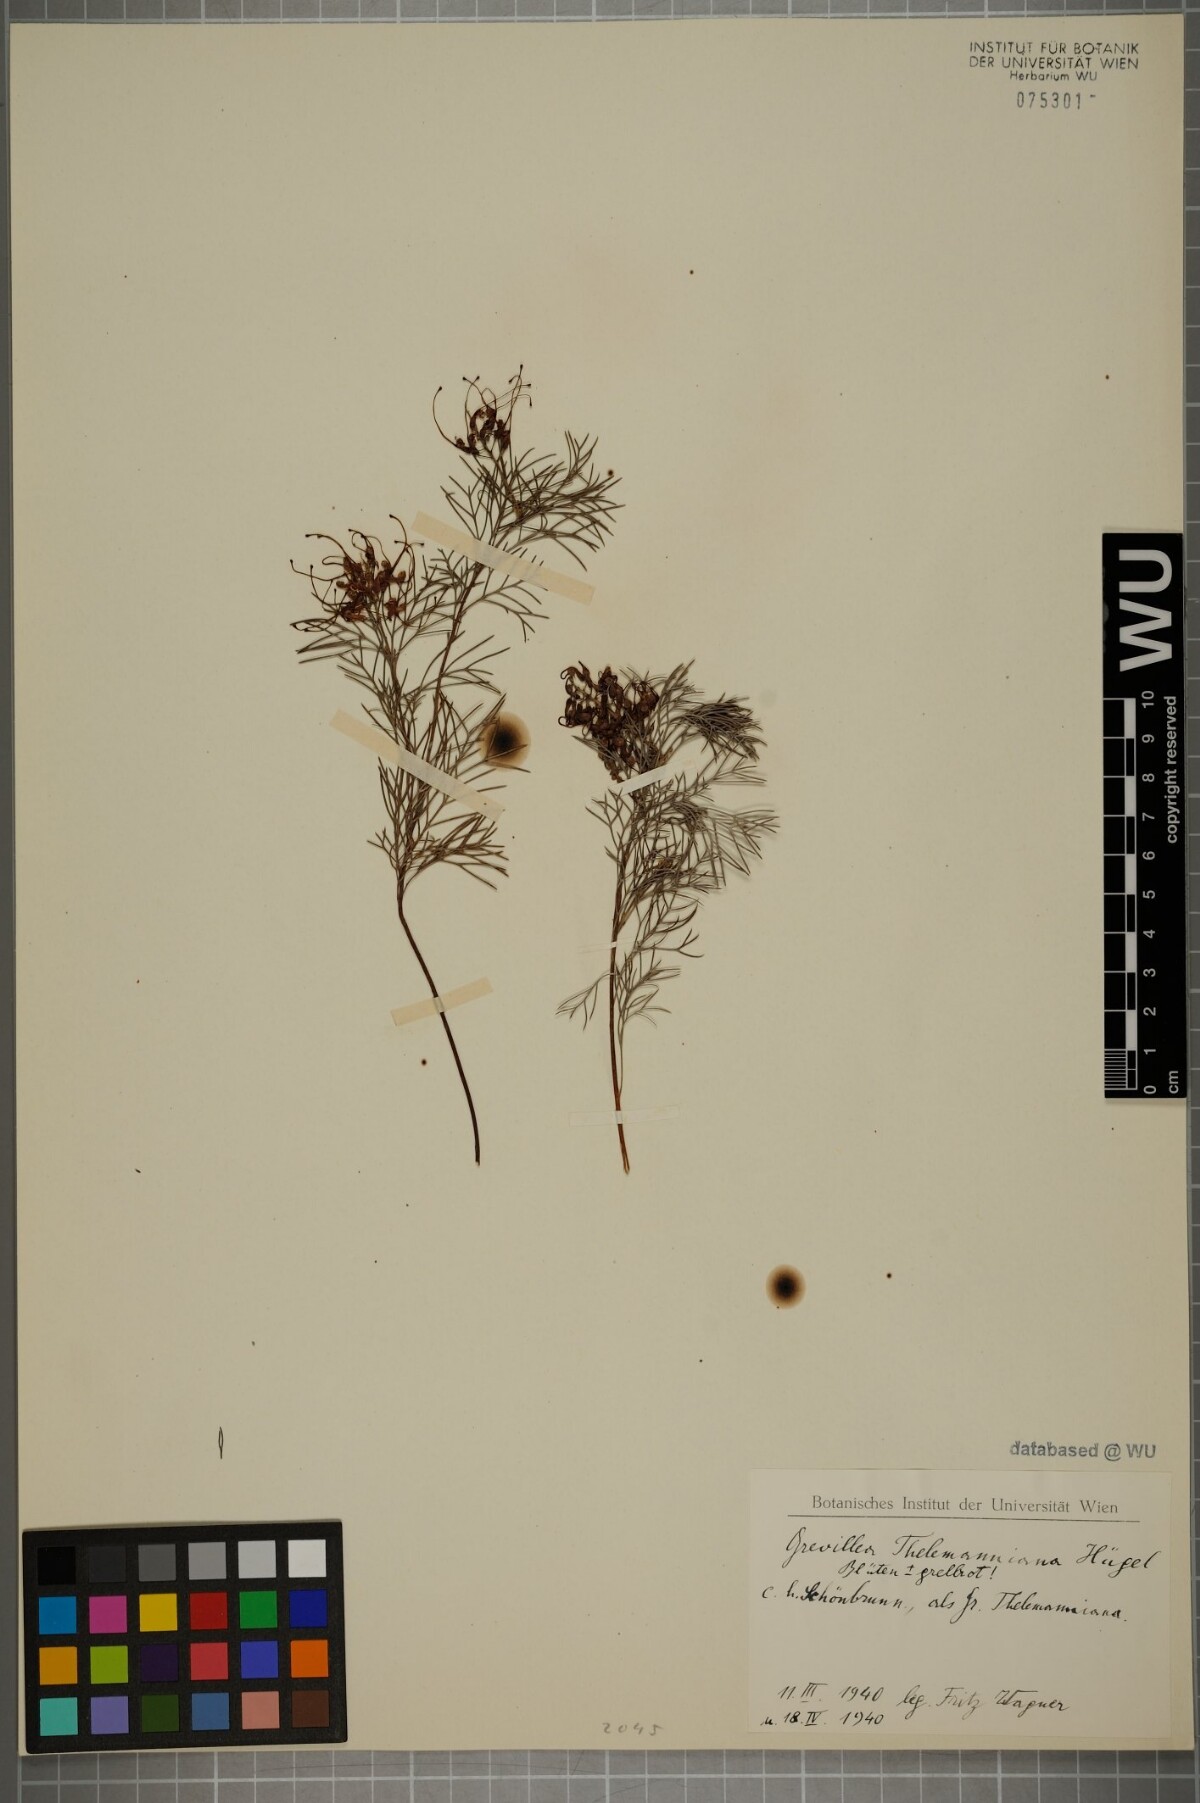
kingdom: Plantae
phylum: Tracheophyta
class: Magnoliopsida
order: Proteales
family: Proteaceae
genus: Grevillea
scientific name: Grevillea thelemanniana
